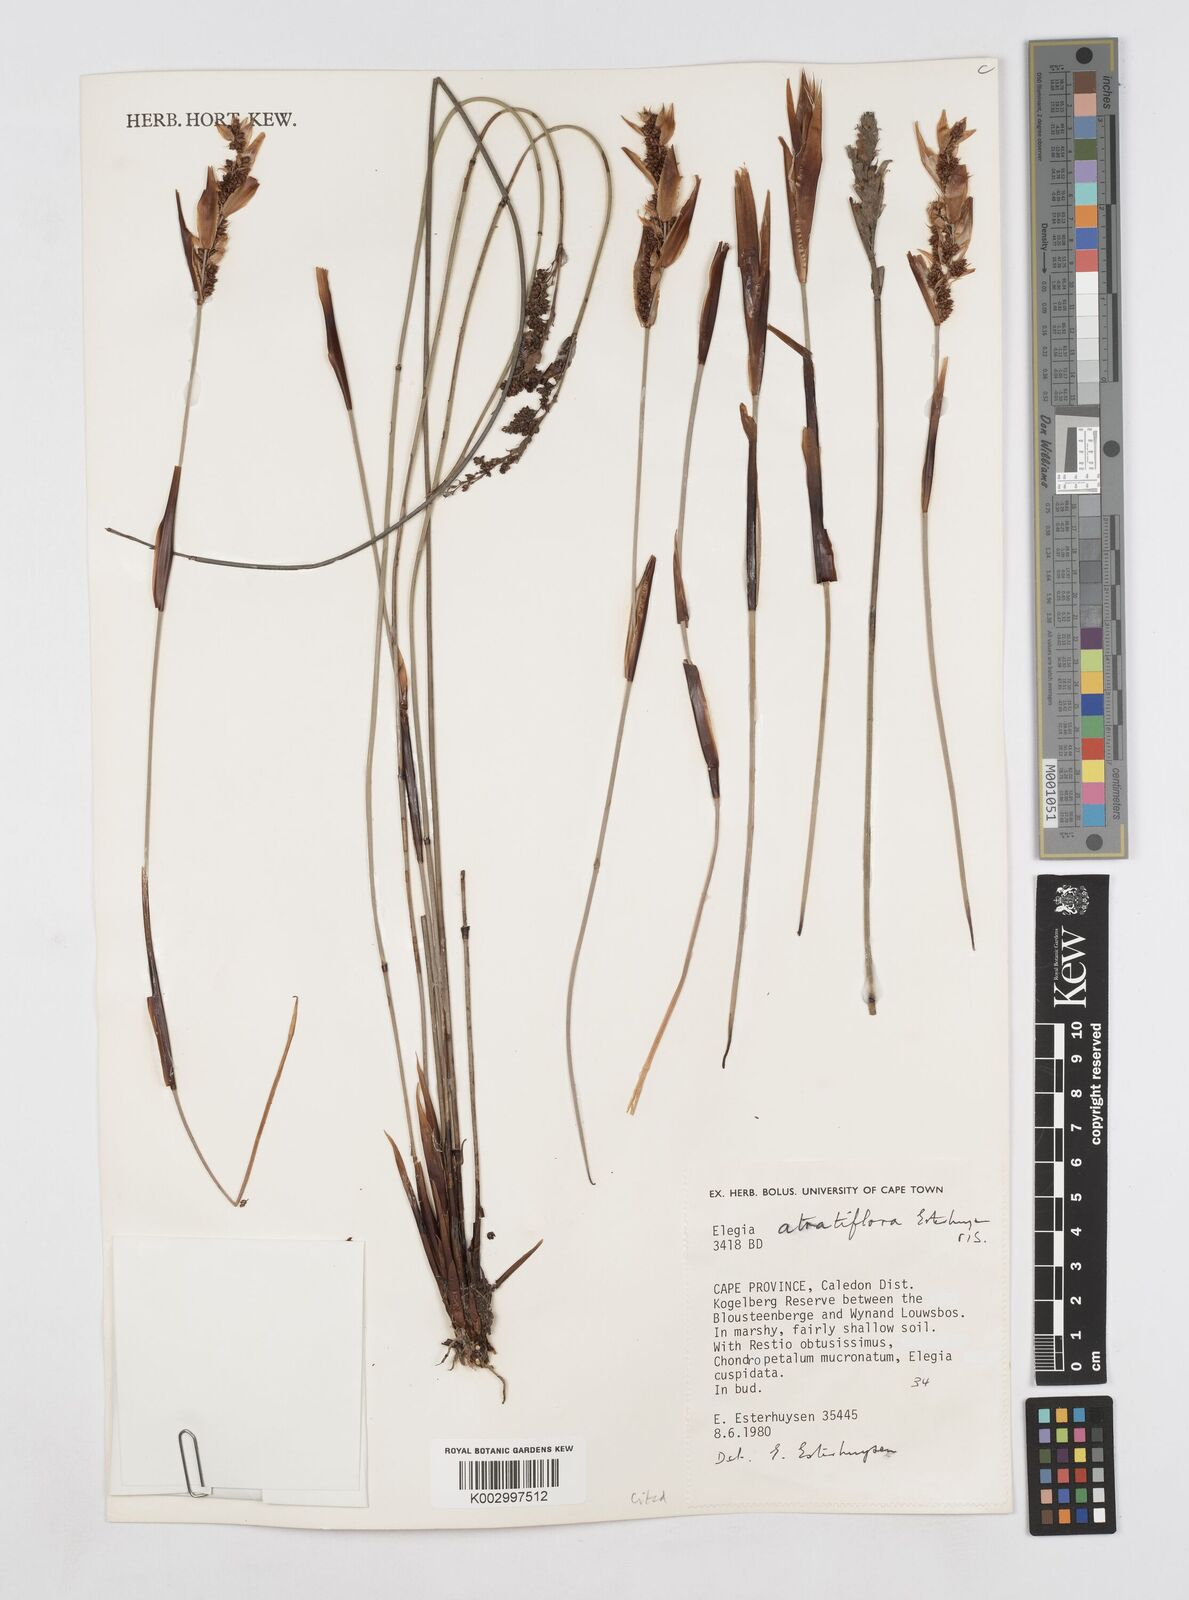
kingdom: Plantae
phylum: Tracheophyta
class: Liliopsida
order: Poales
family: Restionaceae
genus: Elegia
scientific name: Elegia atratiflora
